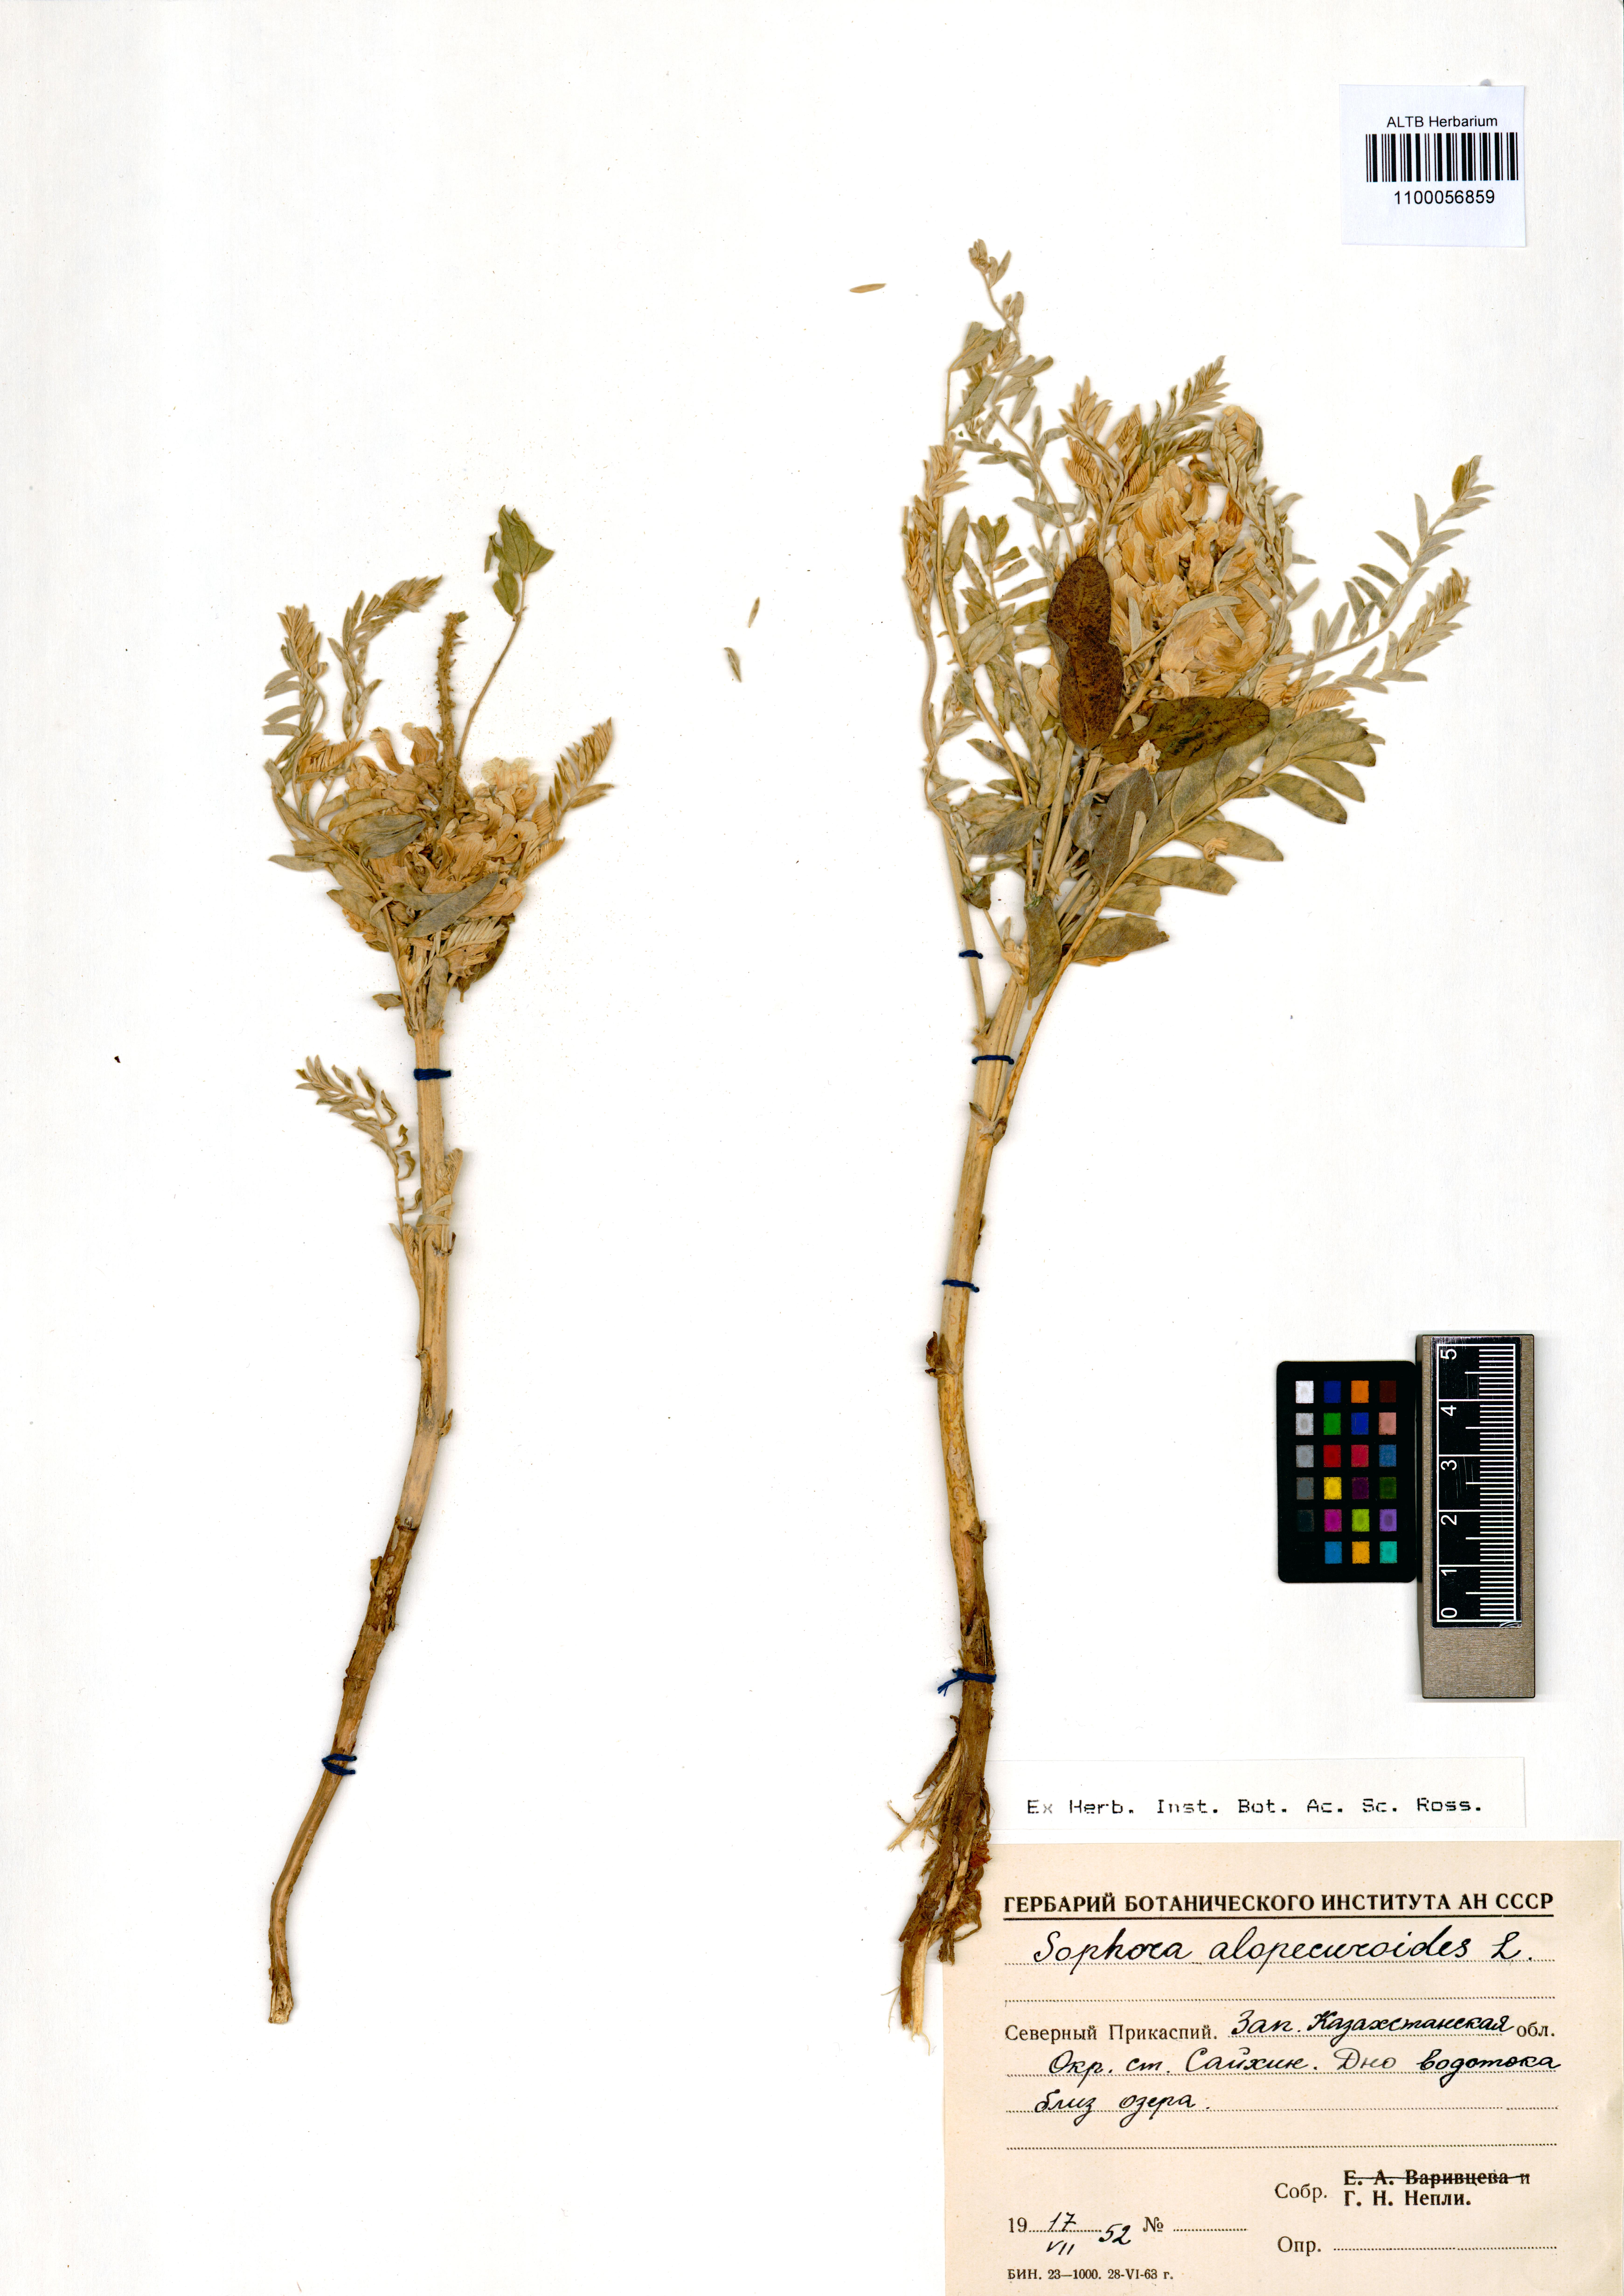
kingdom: Plantae
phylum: Tracheophyta
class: Magnoliopsida
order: Fabales
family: Fabaceae
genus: Sophora
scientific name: Sophora alopecuroides
